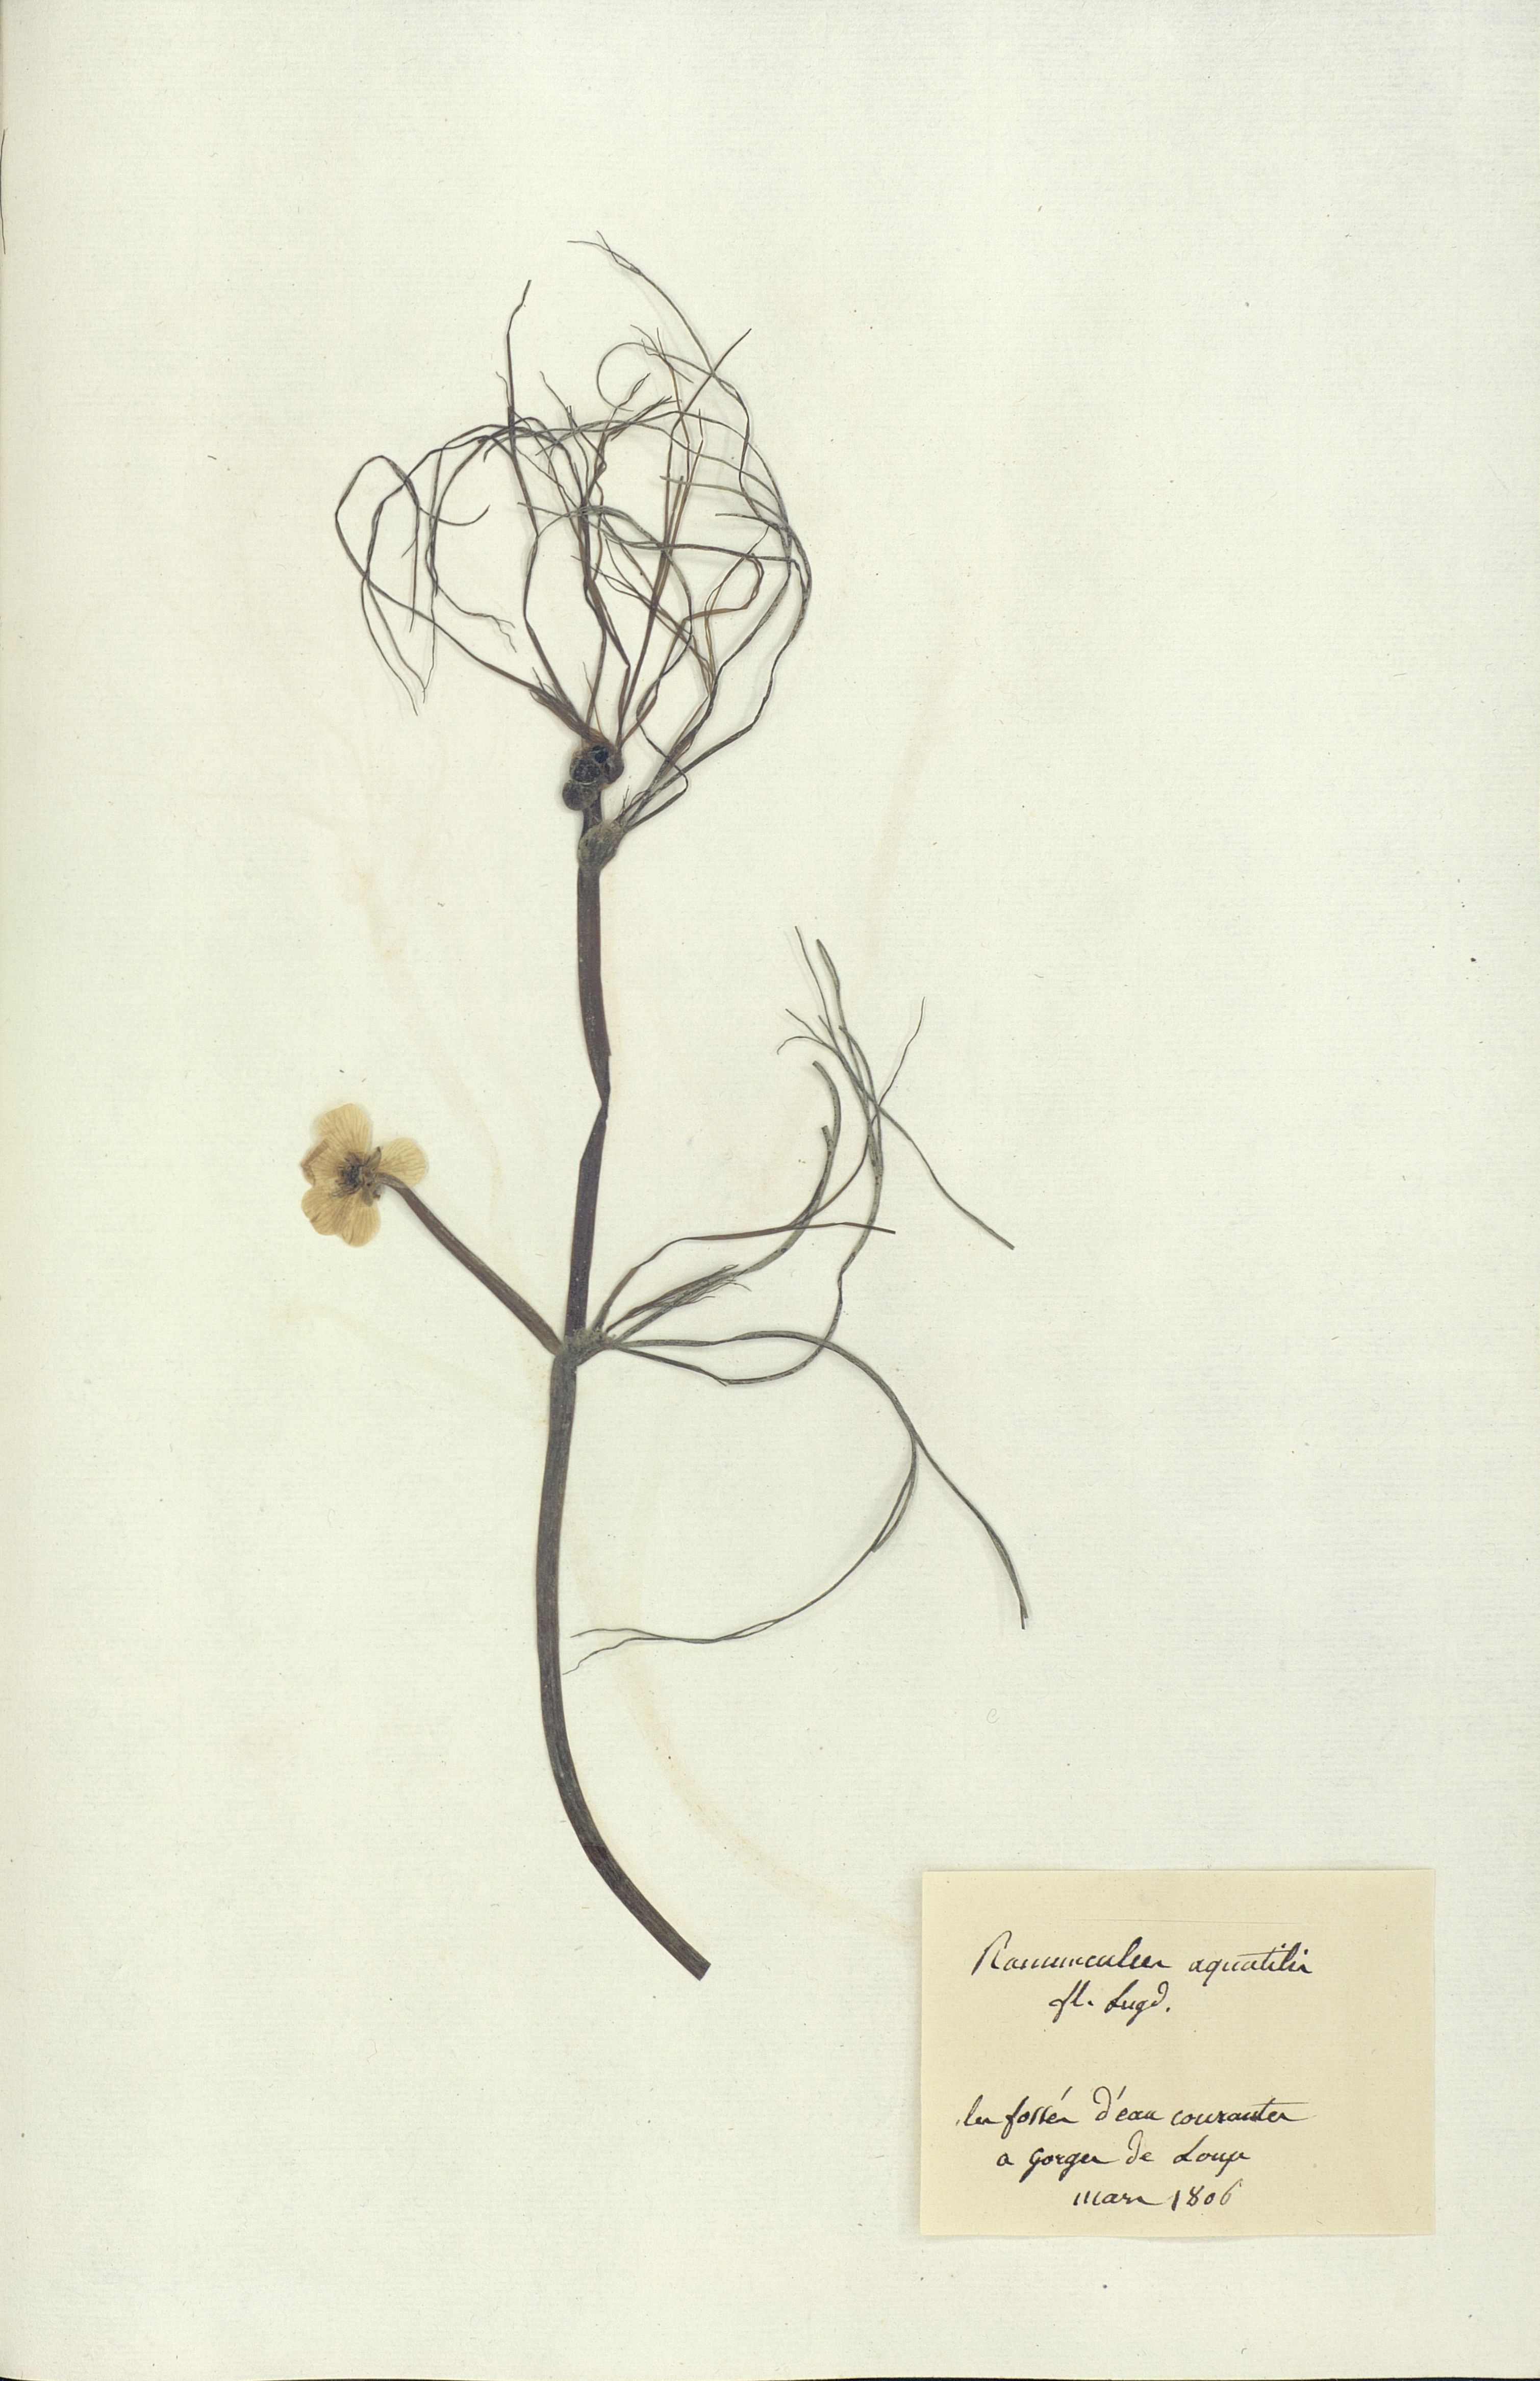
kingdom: Plantae
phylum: Tracheophyta
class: Magnoliopsida
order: Ranunculales
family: Ranunculaceae
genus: Ranunculus
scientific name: Ranunculus aquatilis
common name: Common water-crowfoot
